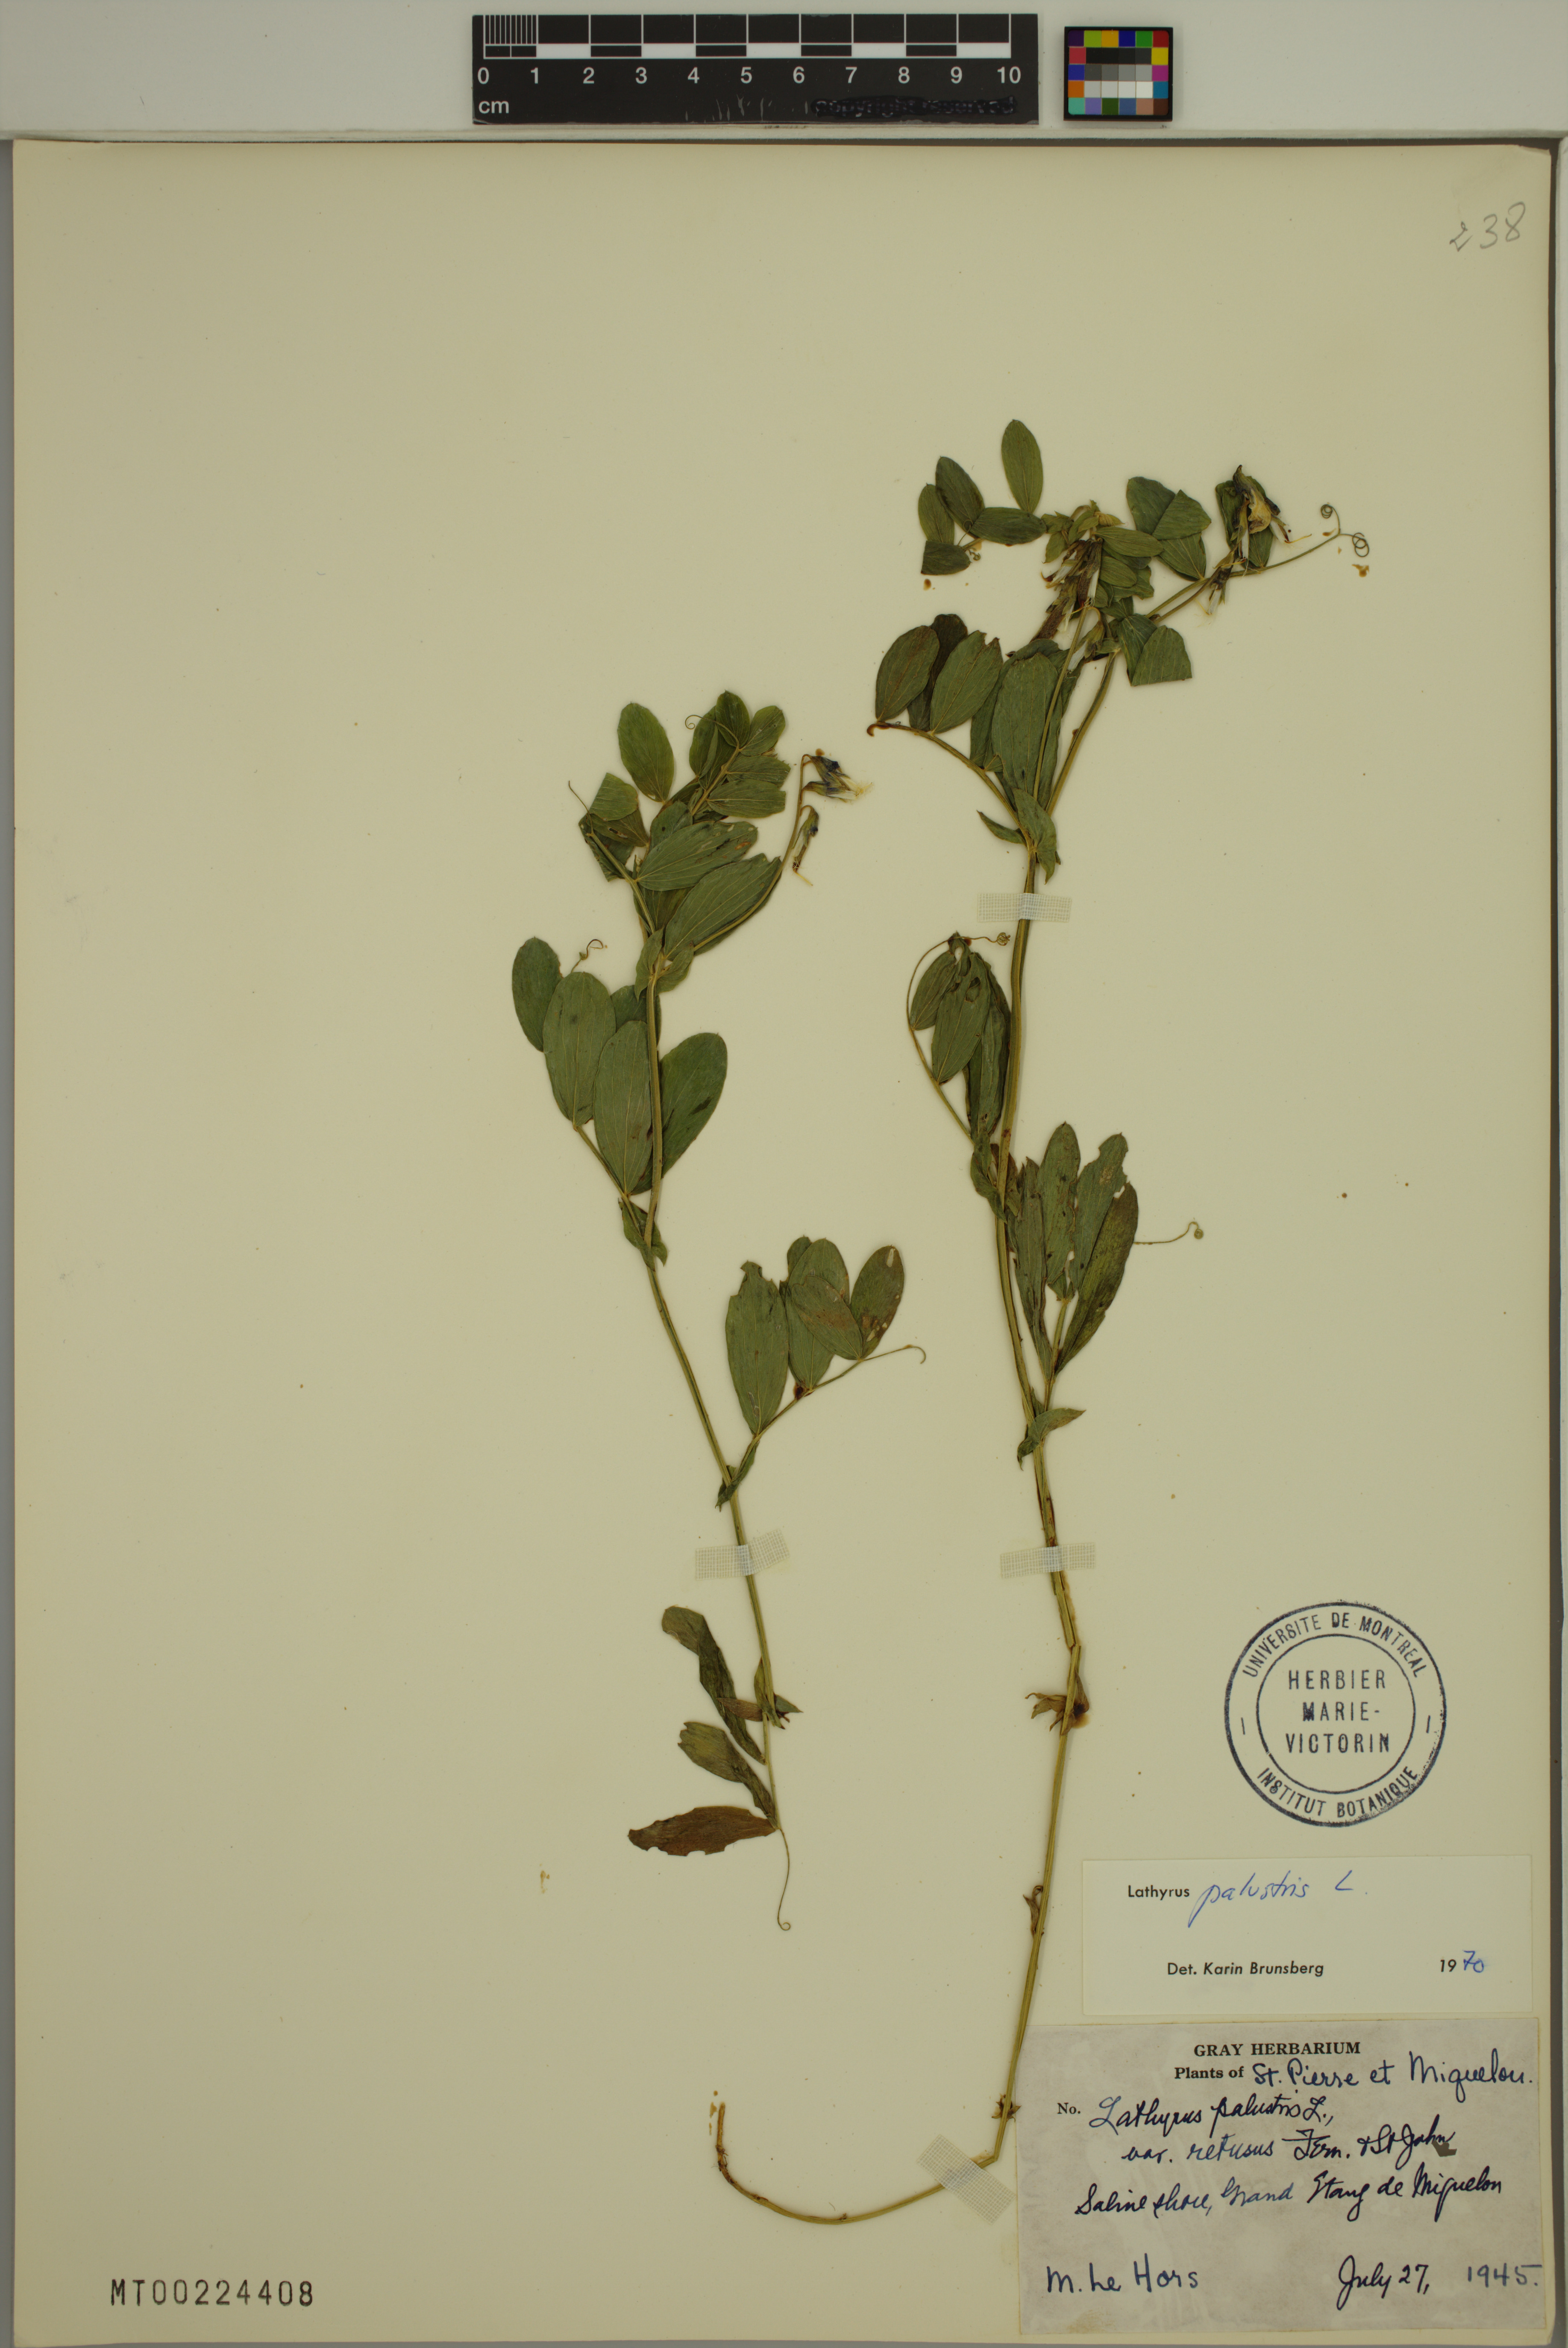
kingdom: Plantae
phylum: Tracheophyta
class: Magnoliopsida
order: Fabales
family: Fabaceae
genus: Lathyrus
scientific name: Lathyrus palustris
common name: Marsh pea
